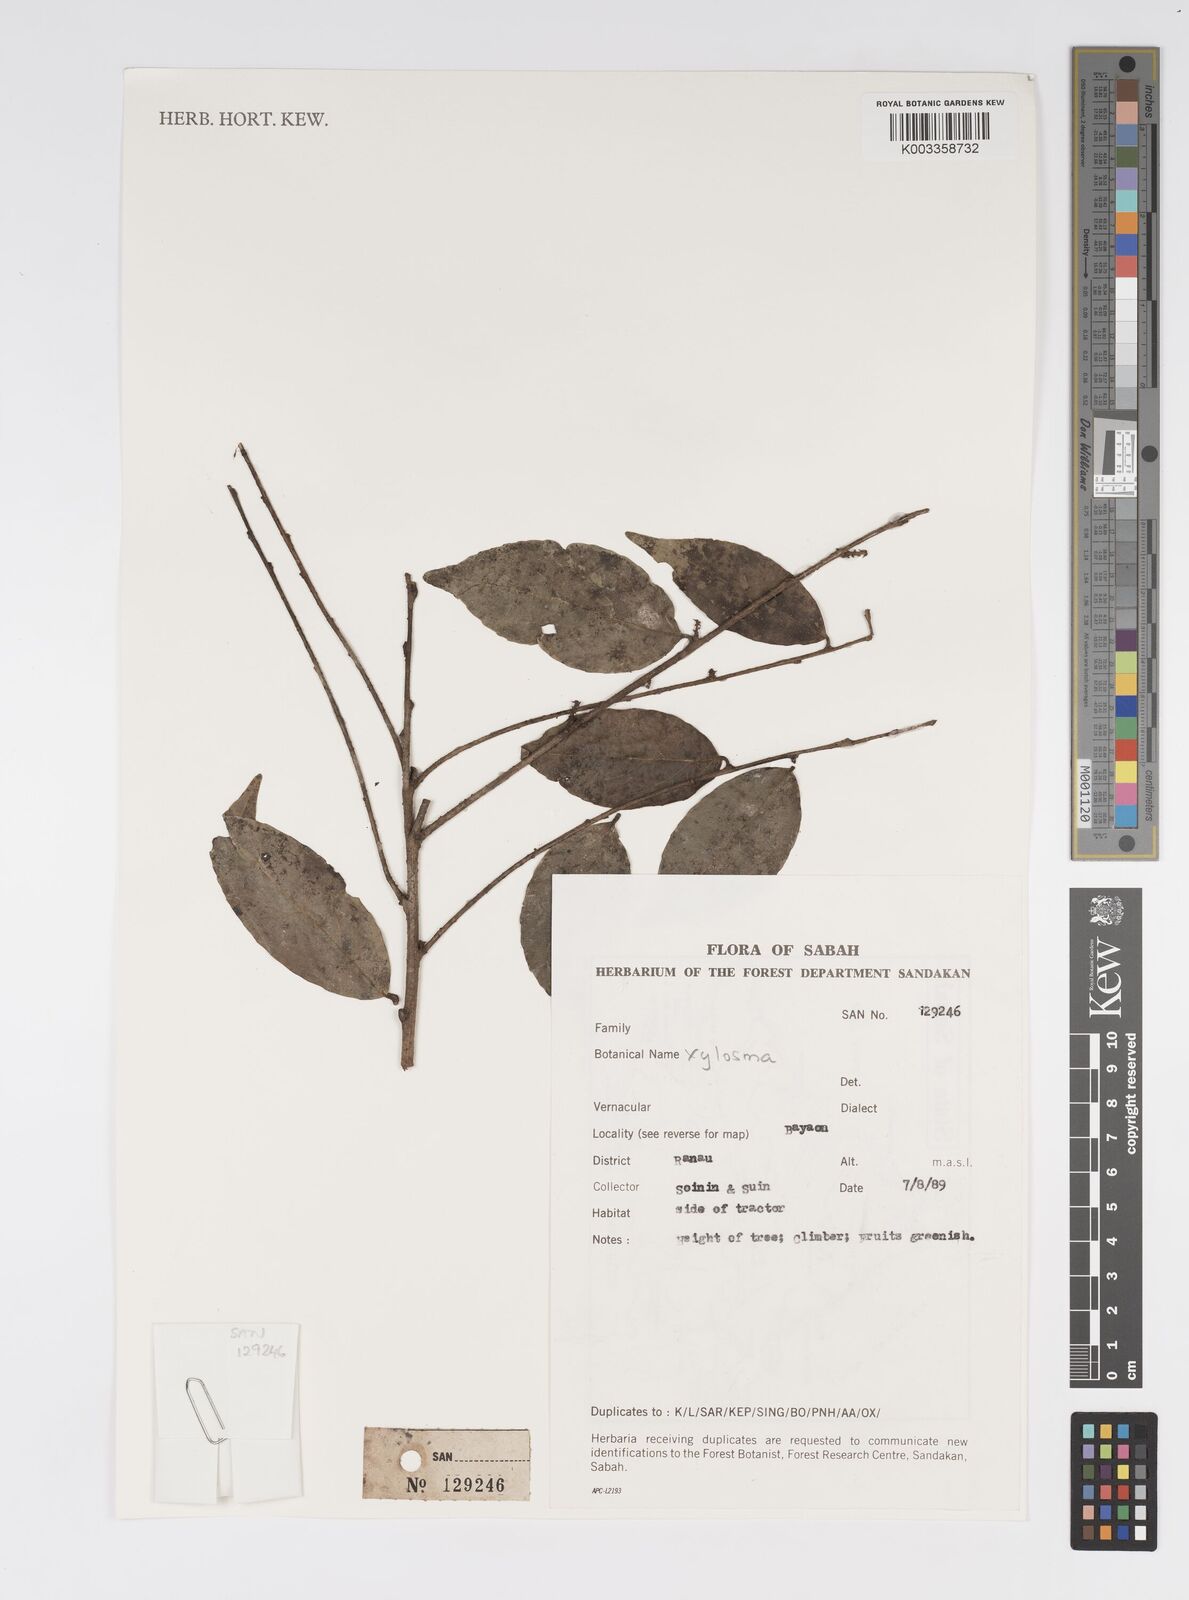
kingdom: Plantae
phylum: Tracheophyta
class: Magnoliopsida
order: Malpighiales
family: Salicaceae
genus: Xylosma
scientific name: Xylosma
